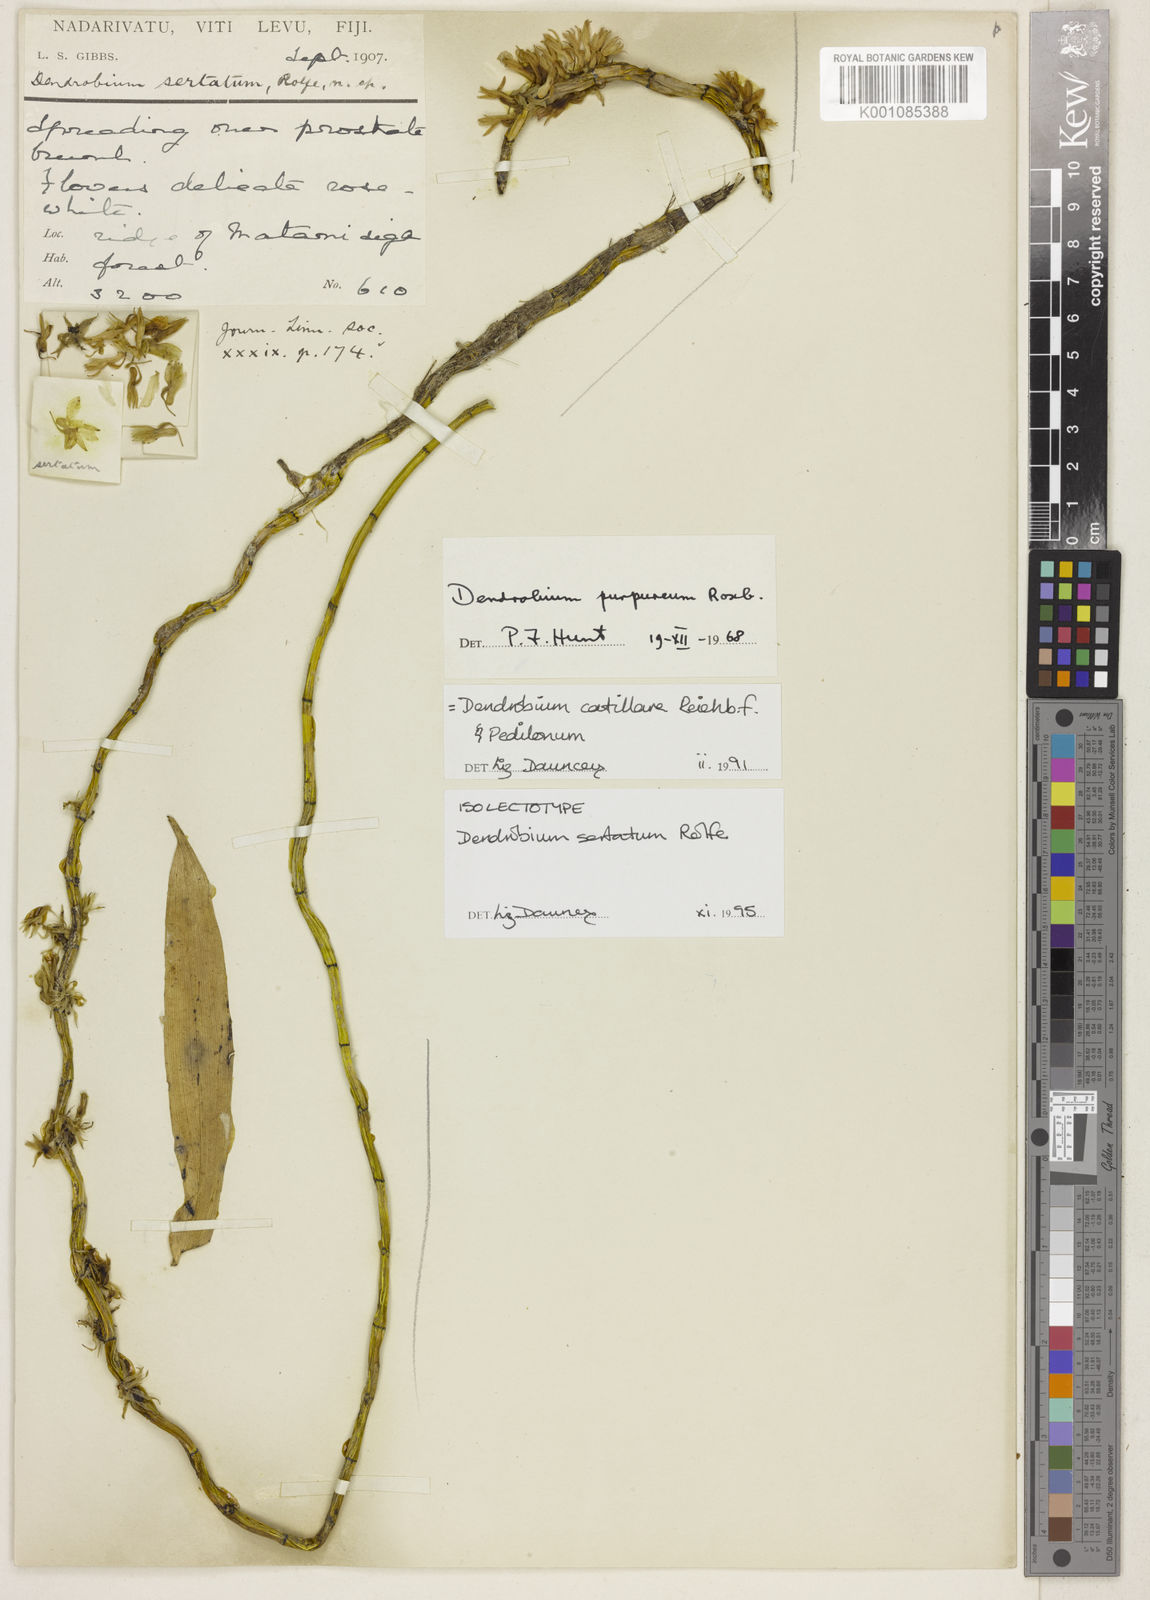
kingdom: Plantae
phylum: Tracheophyta
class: Liliopsida
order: Asparagales
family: Orchidaceae
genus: Dendrobium
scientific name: Dendrobium
